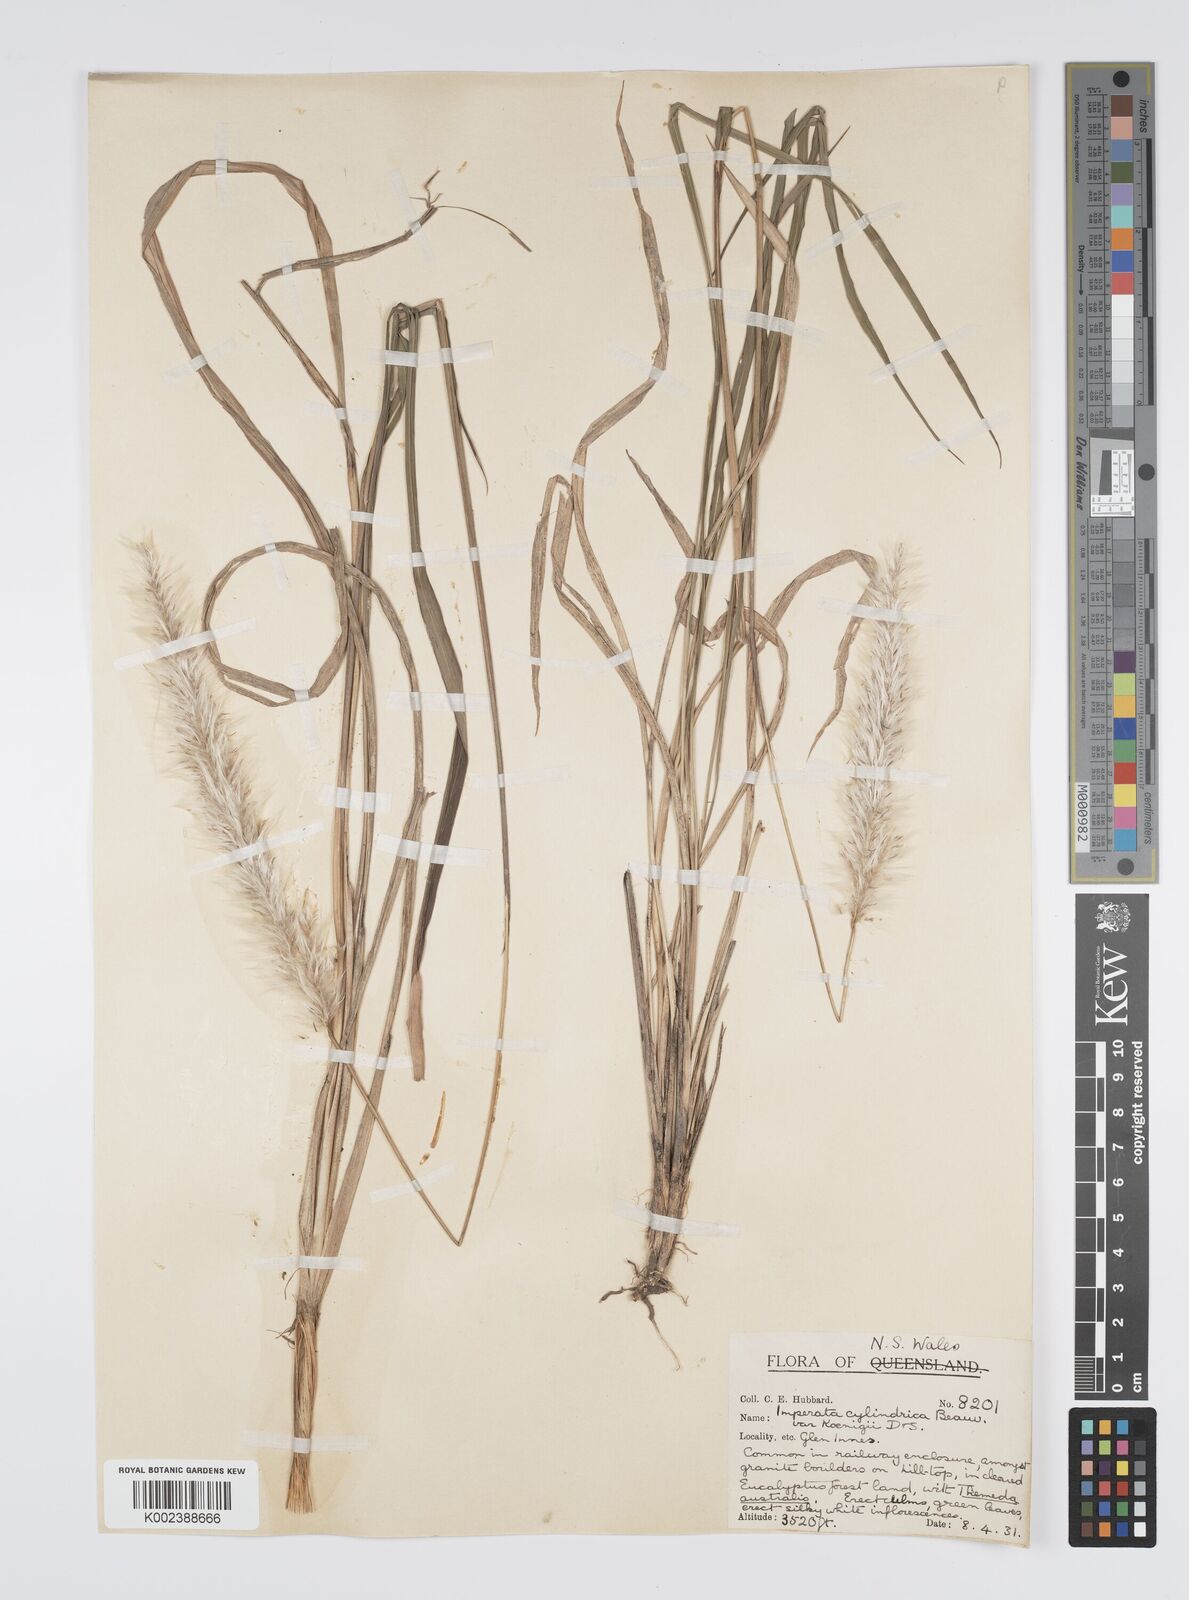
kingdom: Plantae
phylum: Tracheophyta
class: Liliopsida
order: Poales
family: Poaceae
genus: Imperata
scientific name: Imperata cylindrica
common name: Cogongrass
